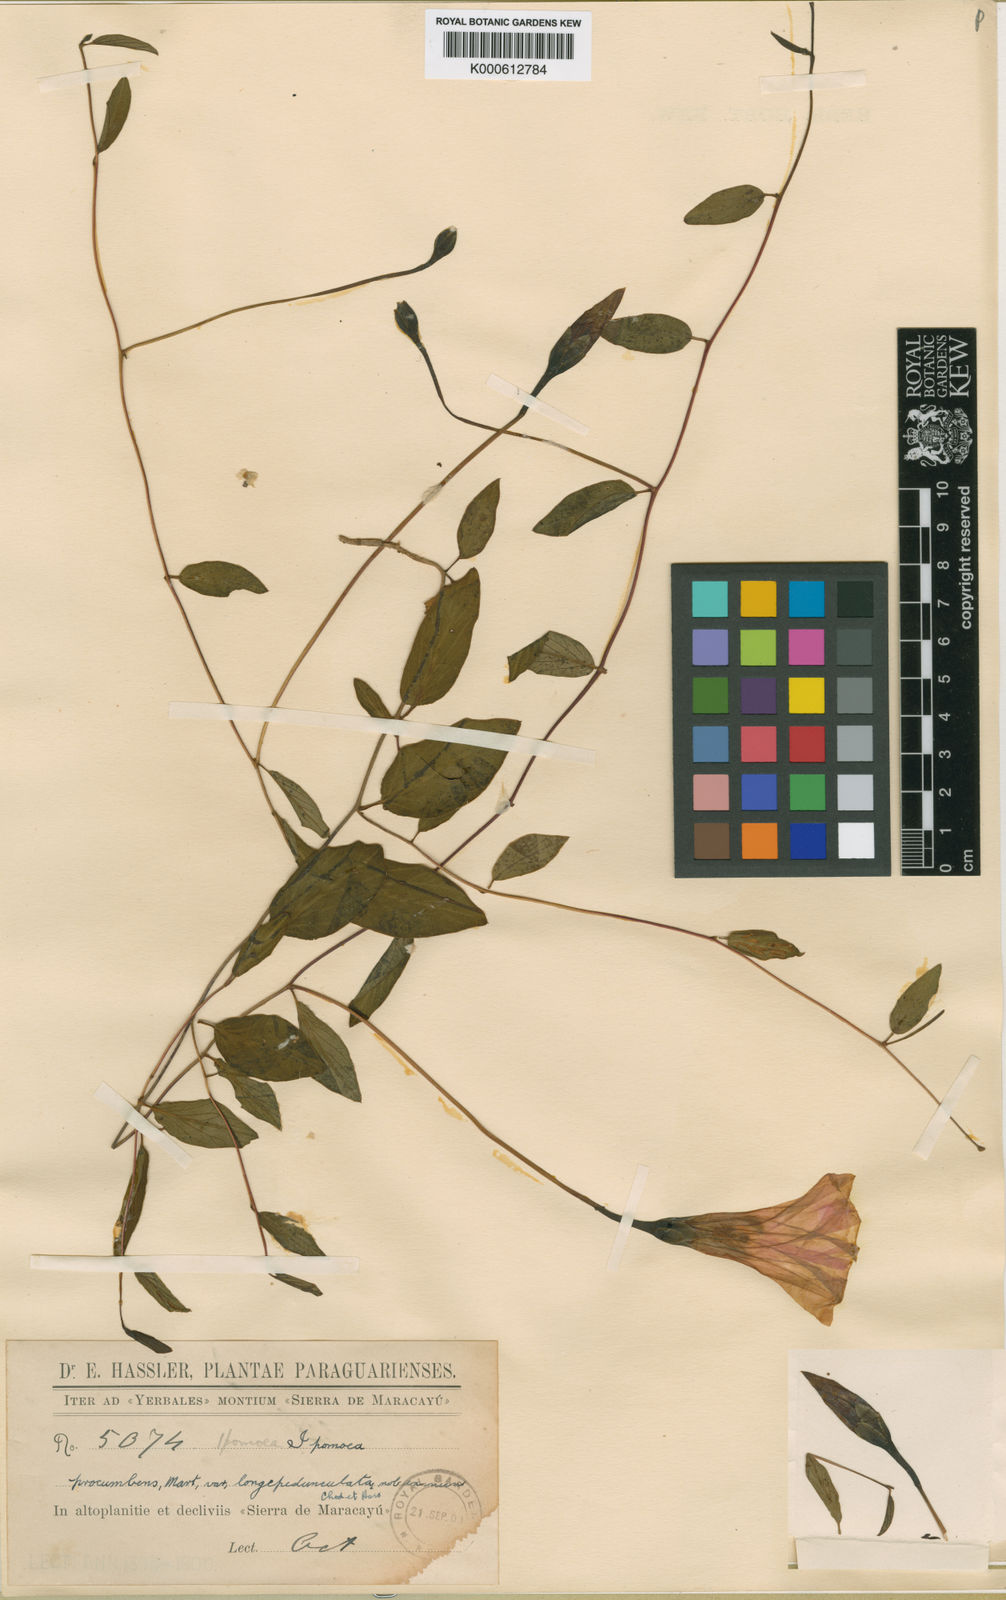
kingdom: Plantae
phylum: Tracheophyta
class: Magnoliopsida
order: Solanales
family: Convolvulaceae
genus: Ipomoea
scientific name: Ipomoea procumbens
